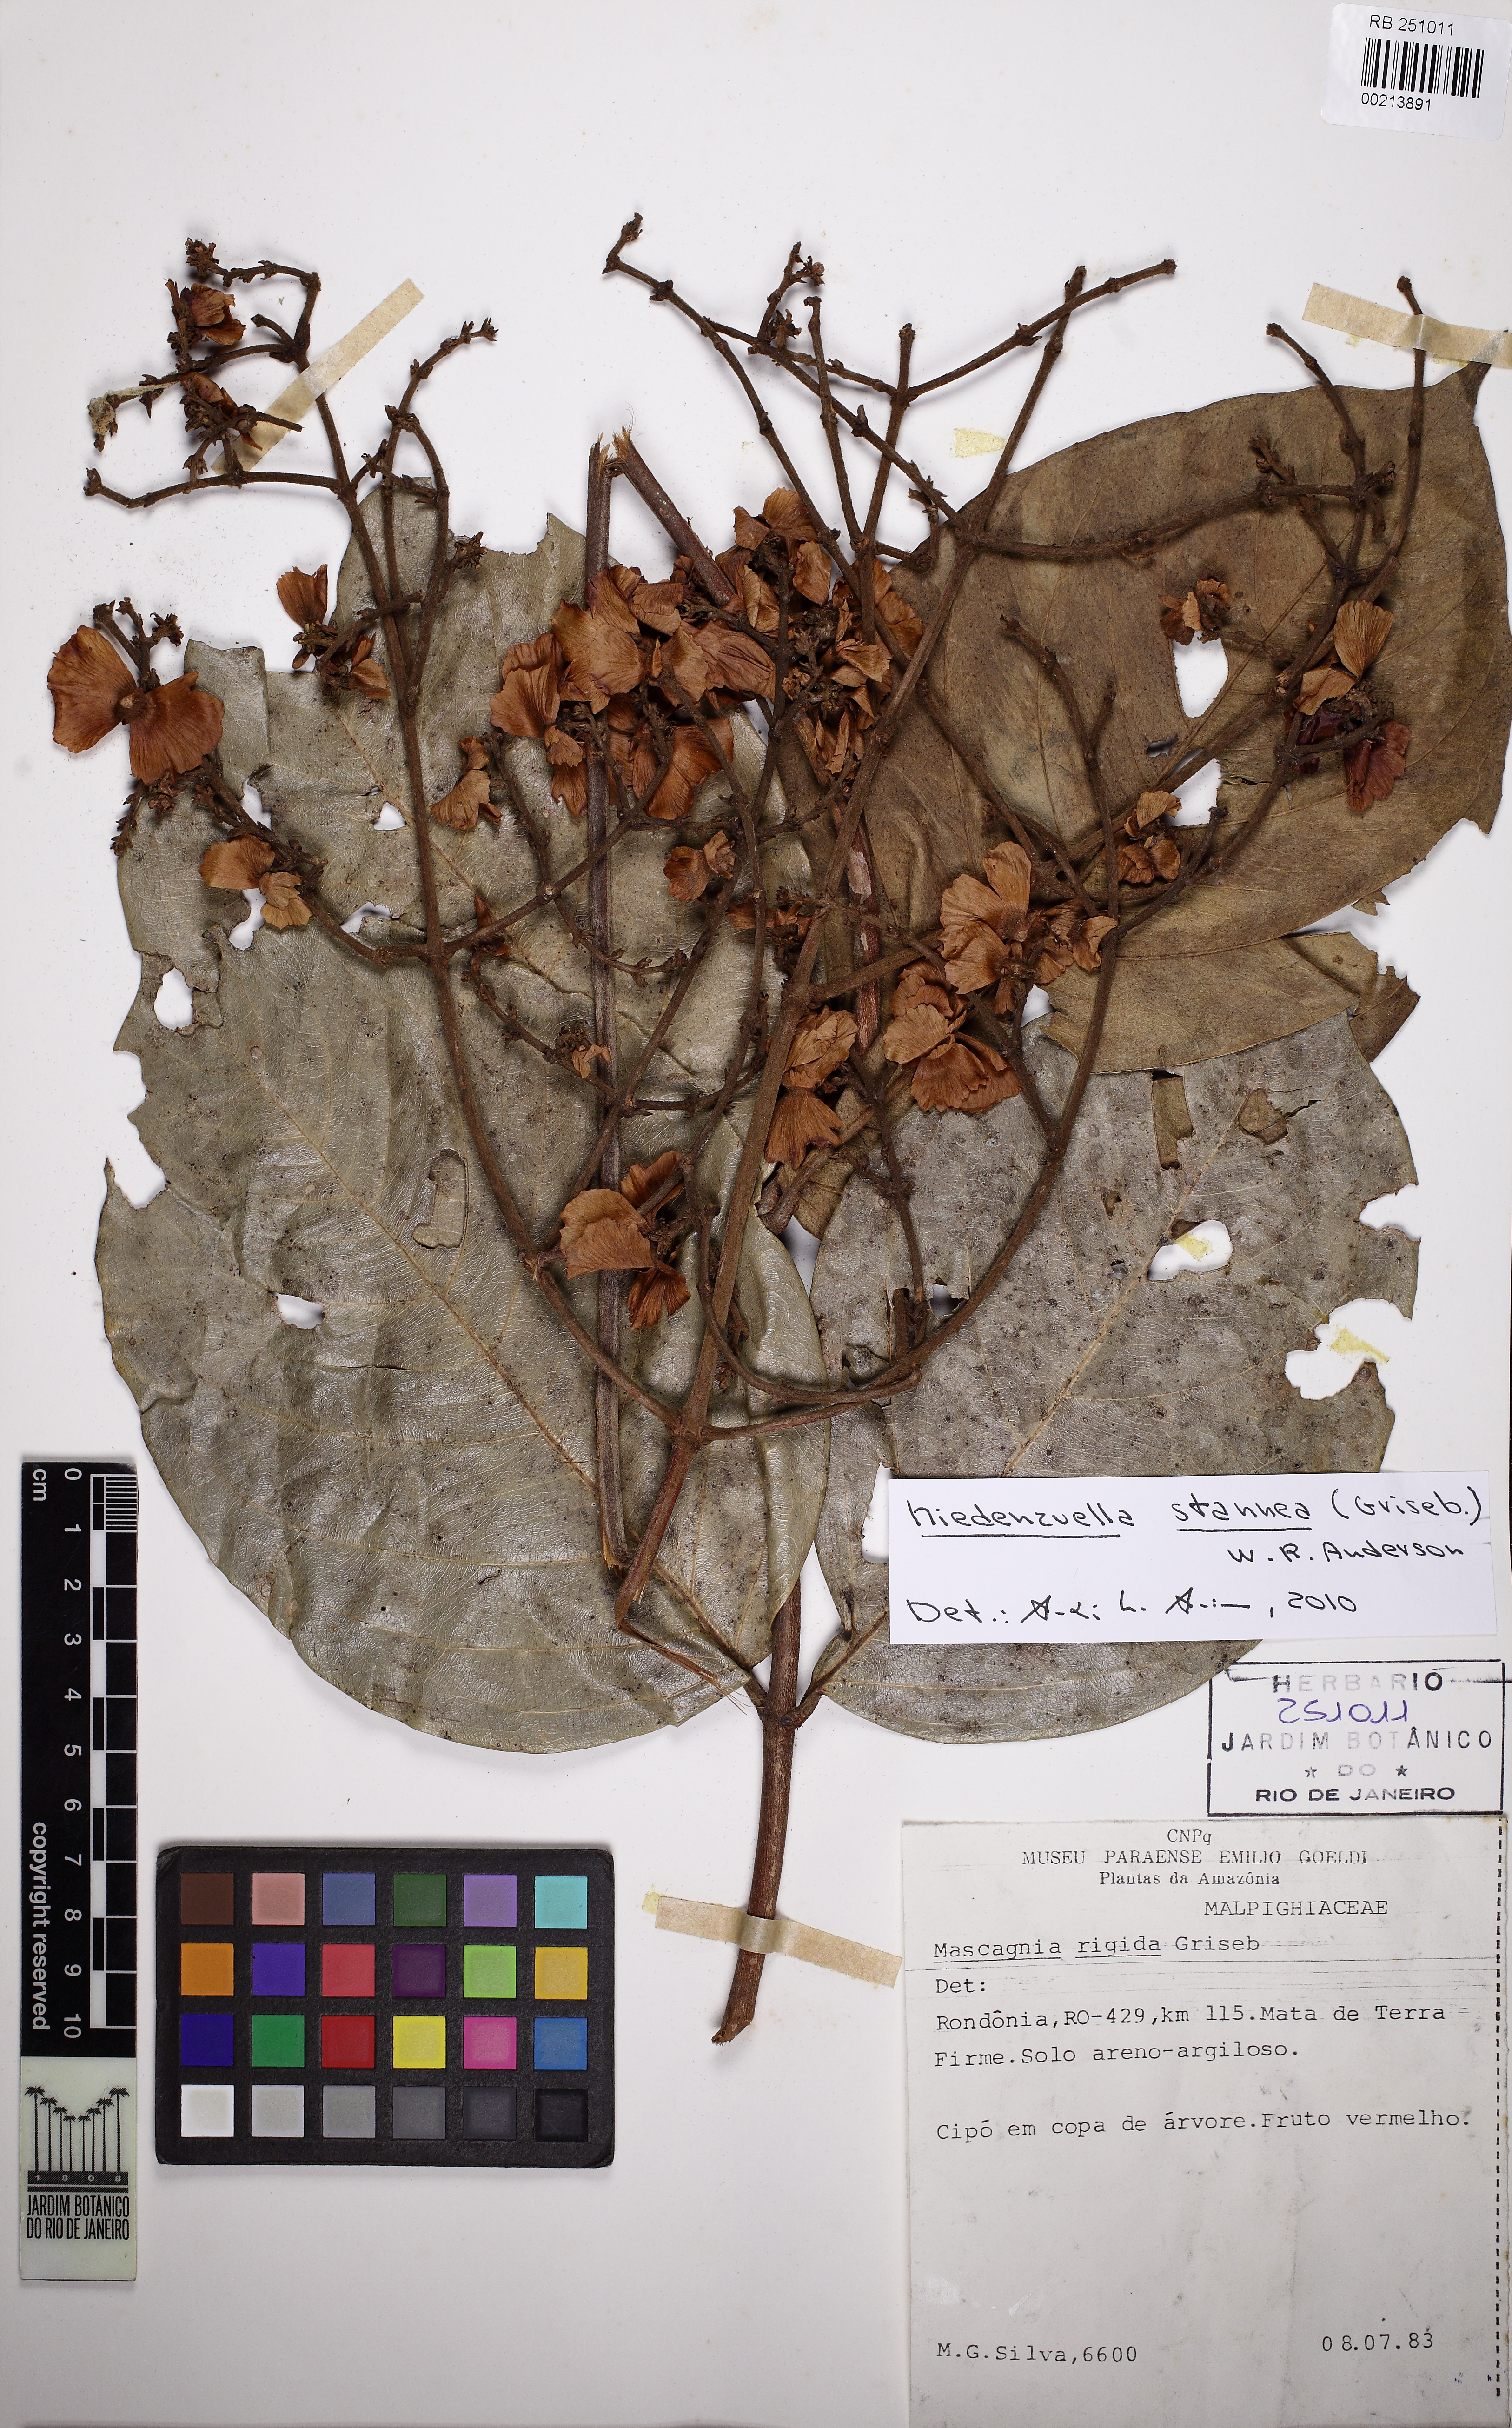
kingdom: Plantae
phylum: Tracheophyta
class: Magnoliopsida
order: Malpighiales
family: Malpighiaceae
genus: Niedenzuella
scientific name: Niedenzuella stannea
